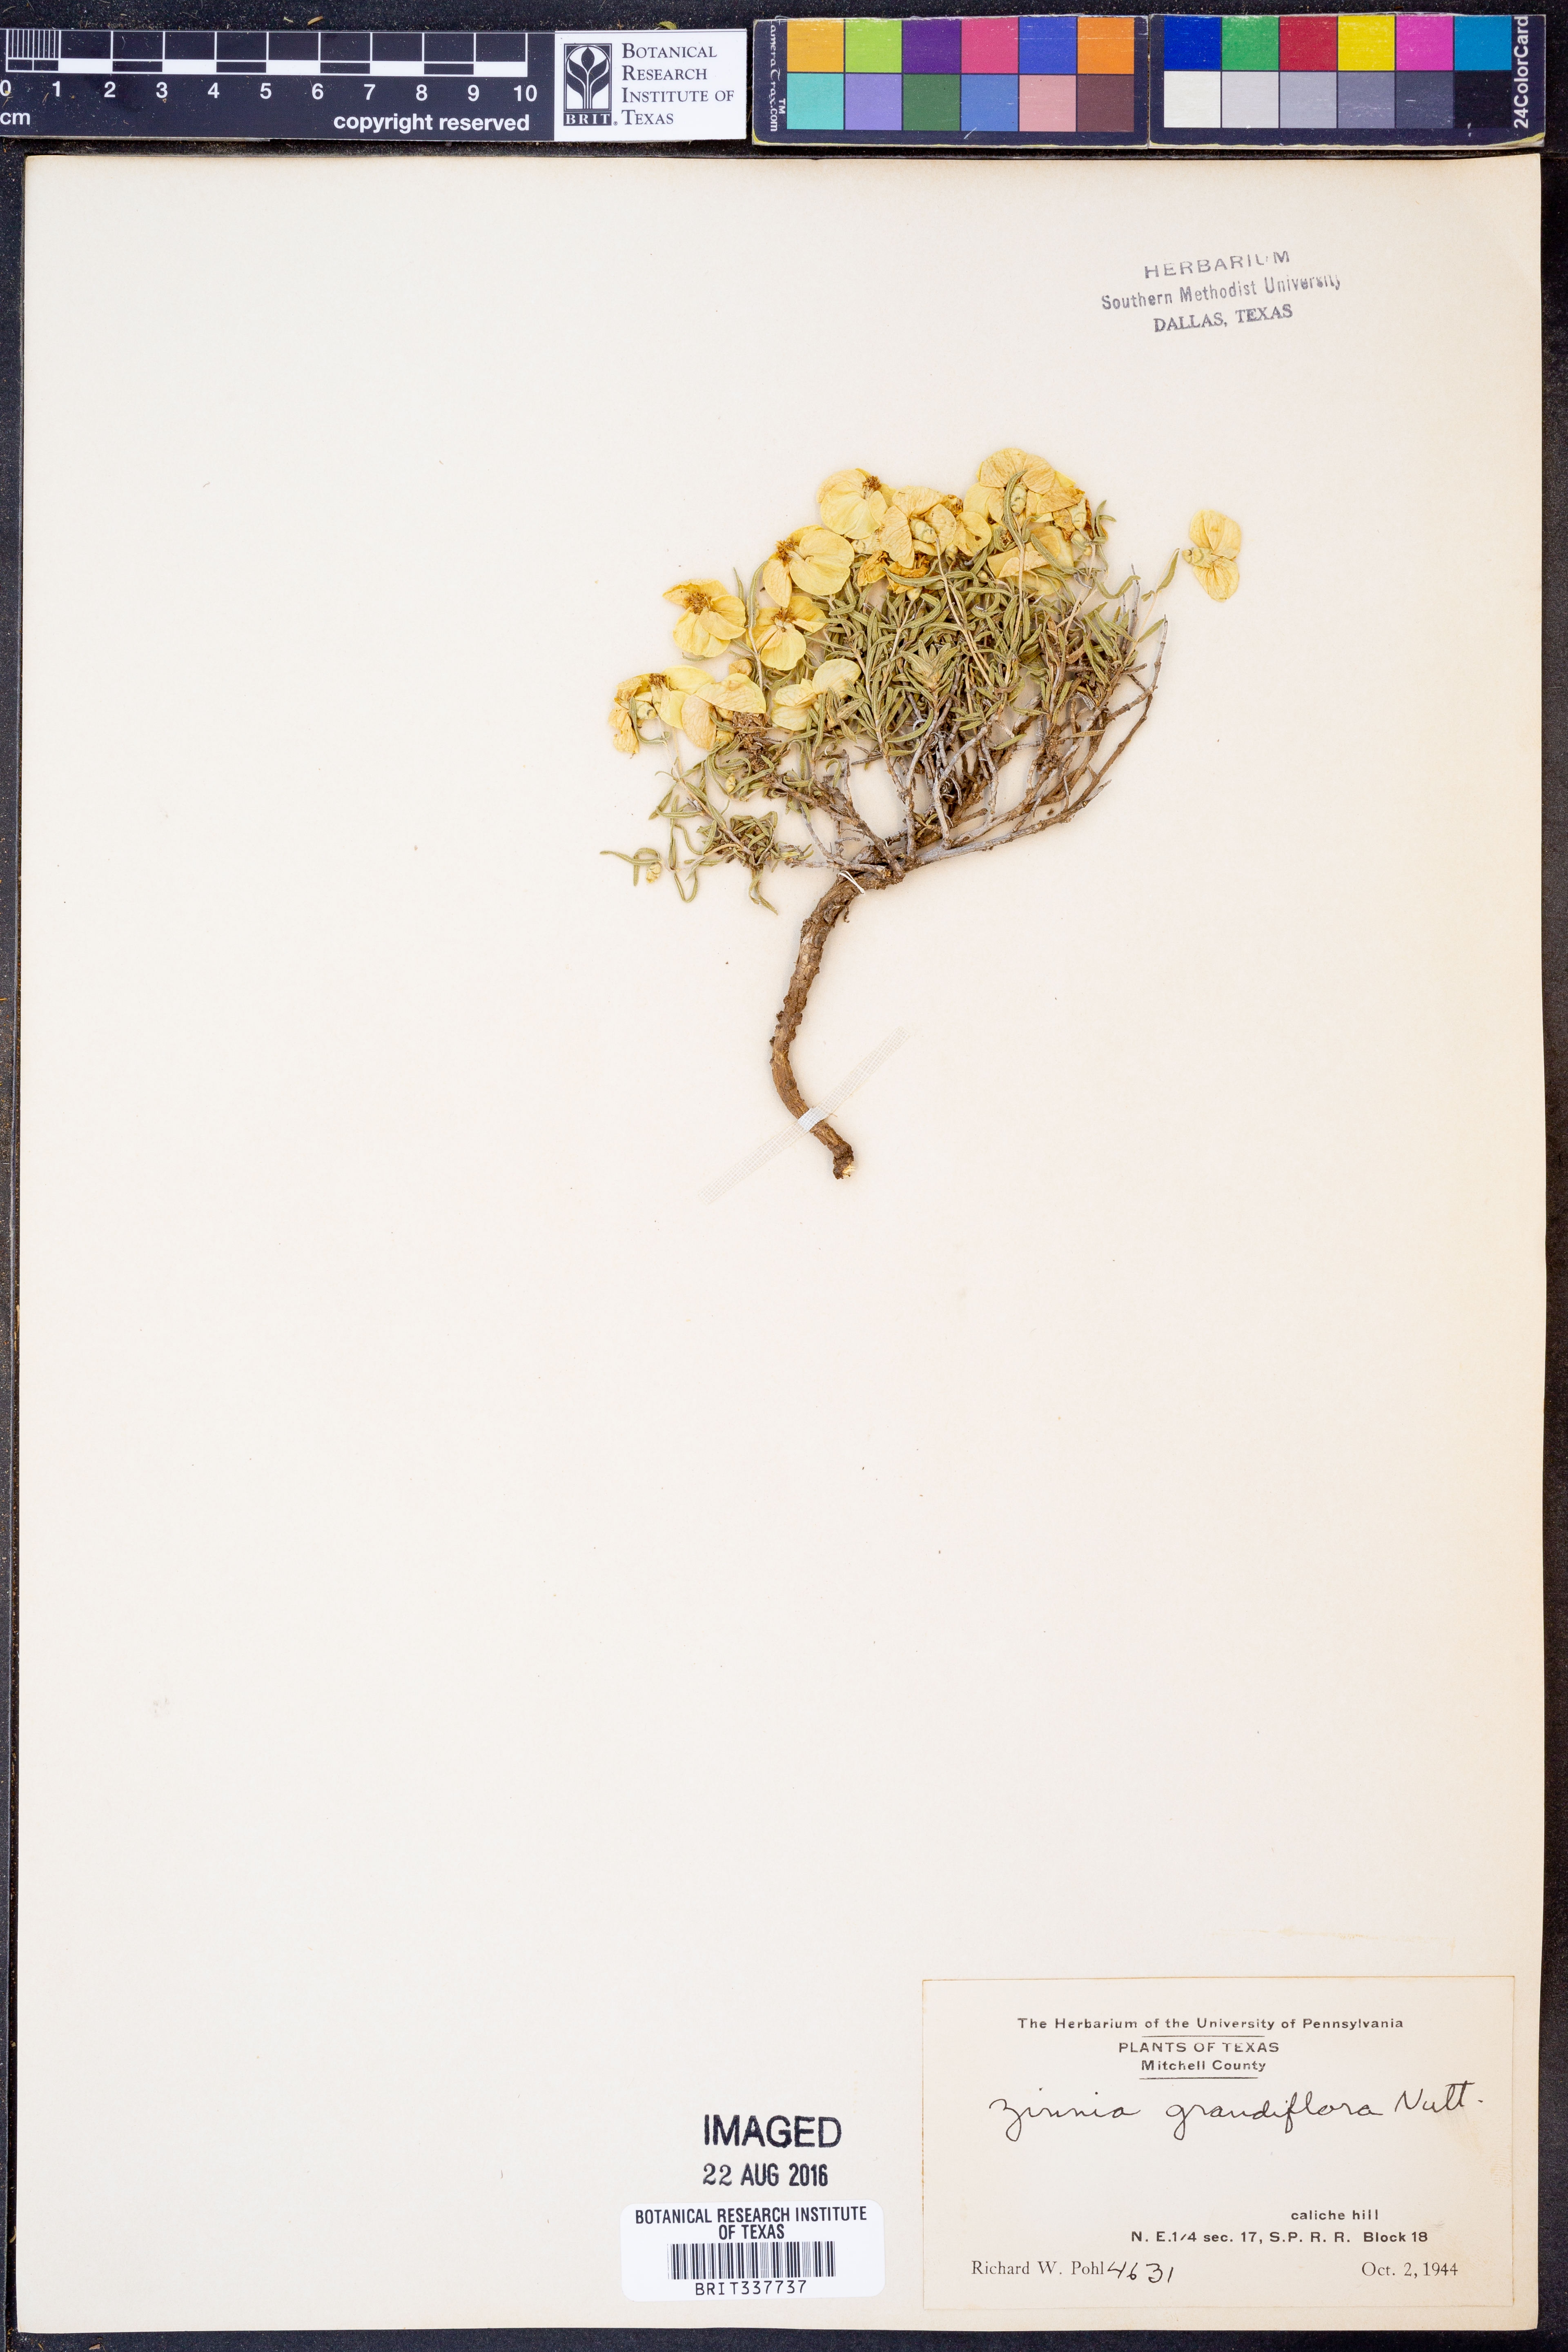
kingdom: Plantae
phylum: Tracheophyta
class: Magnoliopsida
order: Asterales
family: Asteraceae
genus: Zinnia
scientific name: Zinnia grandiflora
